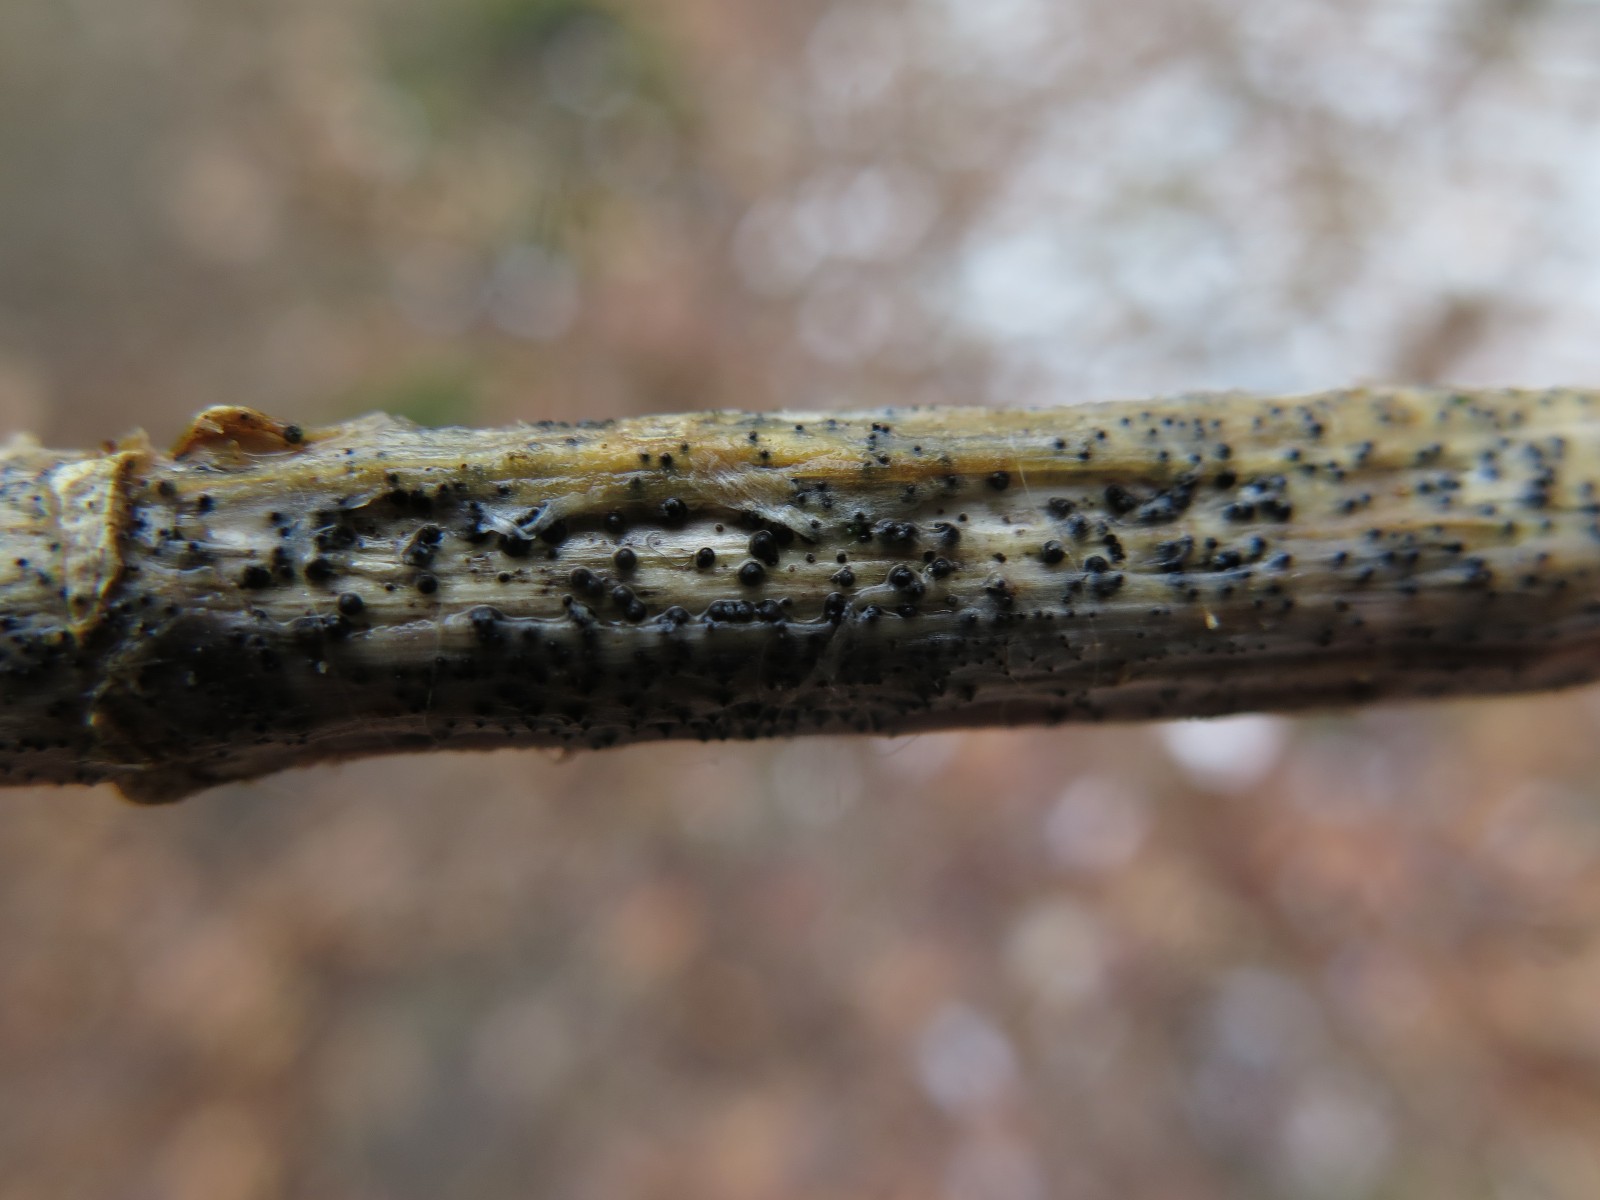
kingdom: Fungi
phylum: Ascomycota
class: Dothideomycetes
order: Pleosporales
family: Leptosphaeriaceae
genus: Leptosphaeria
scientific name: Leptosphaeria acuta
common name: spids kulkegle
